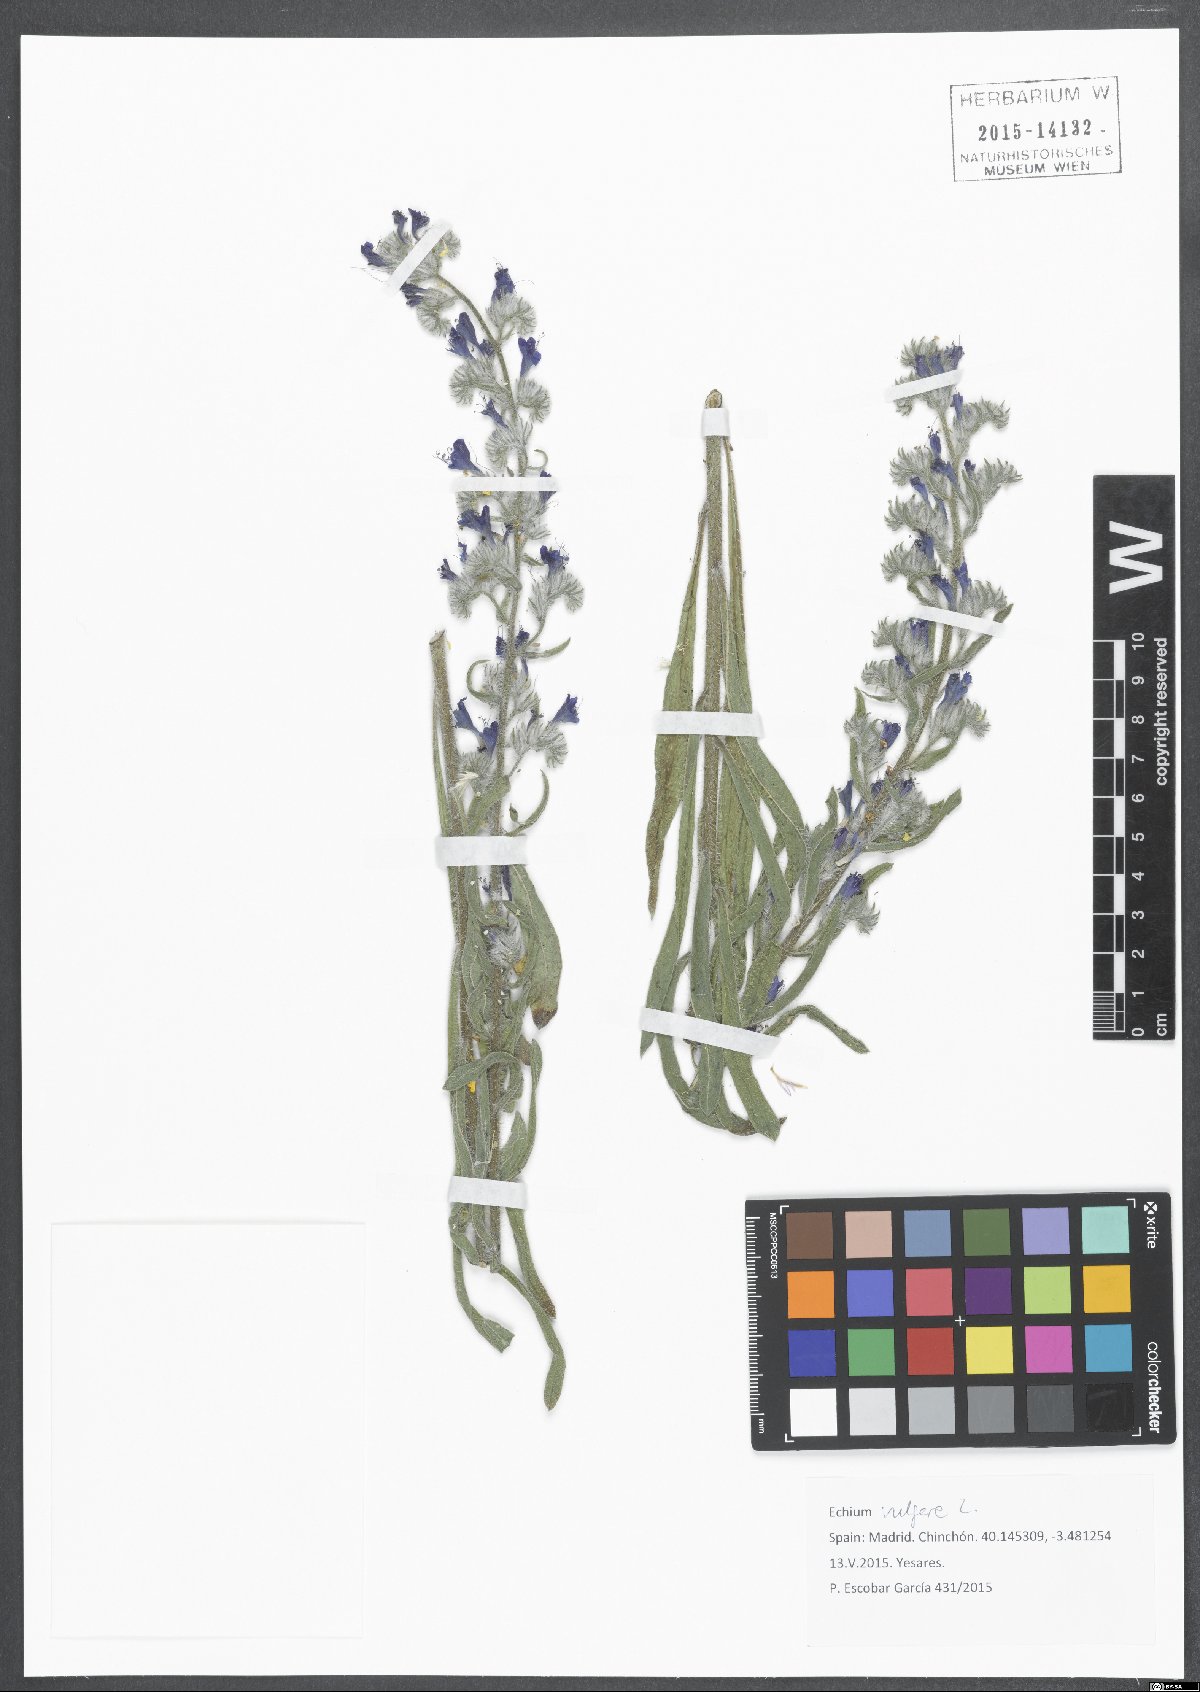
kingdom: Plantae
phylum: Tracheophyta
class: Magnoliopsida
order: Boraginales
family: Boraginaceae
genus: Echium
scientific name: Echium vulgare
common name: Common viper's bugloss
